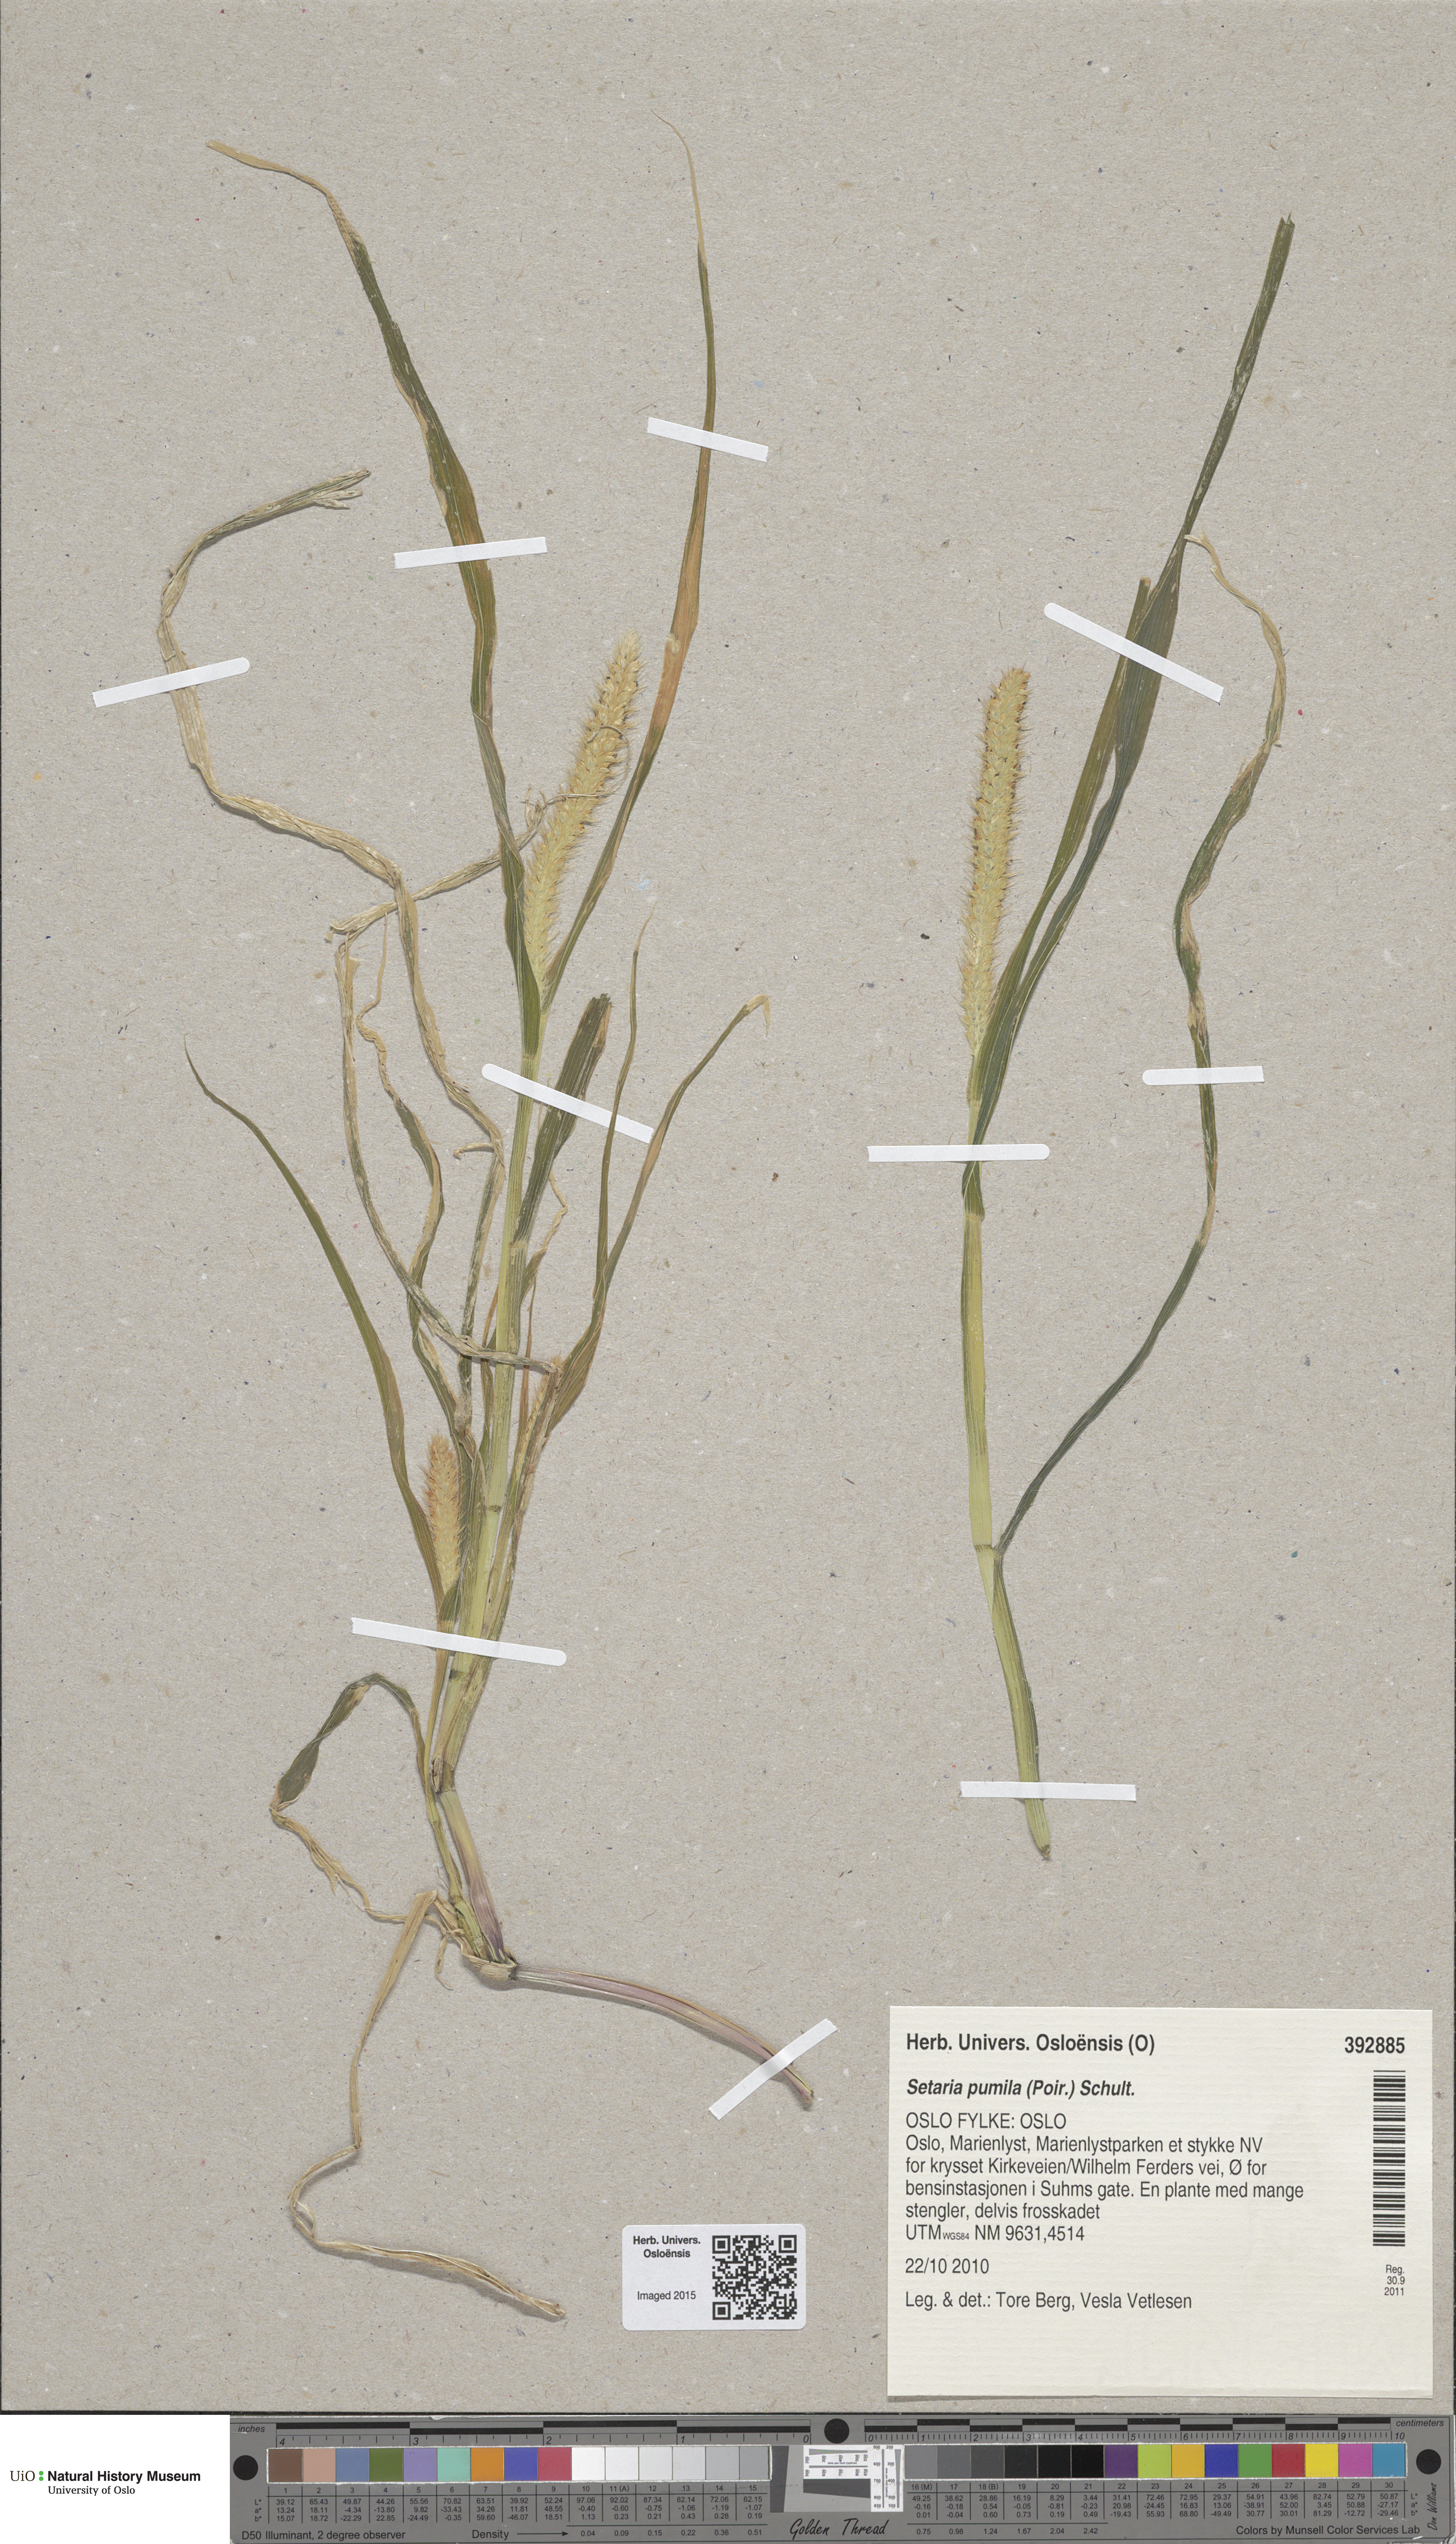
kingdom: Plantae
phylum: Tracheophyta
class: Liliopsida
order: Poales
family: Poaceae
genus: Setaria
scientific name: Setaria pumila
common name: Yellow bristle-grass
